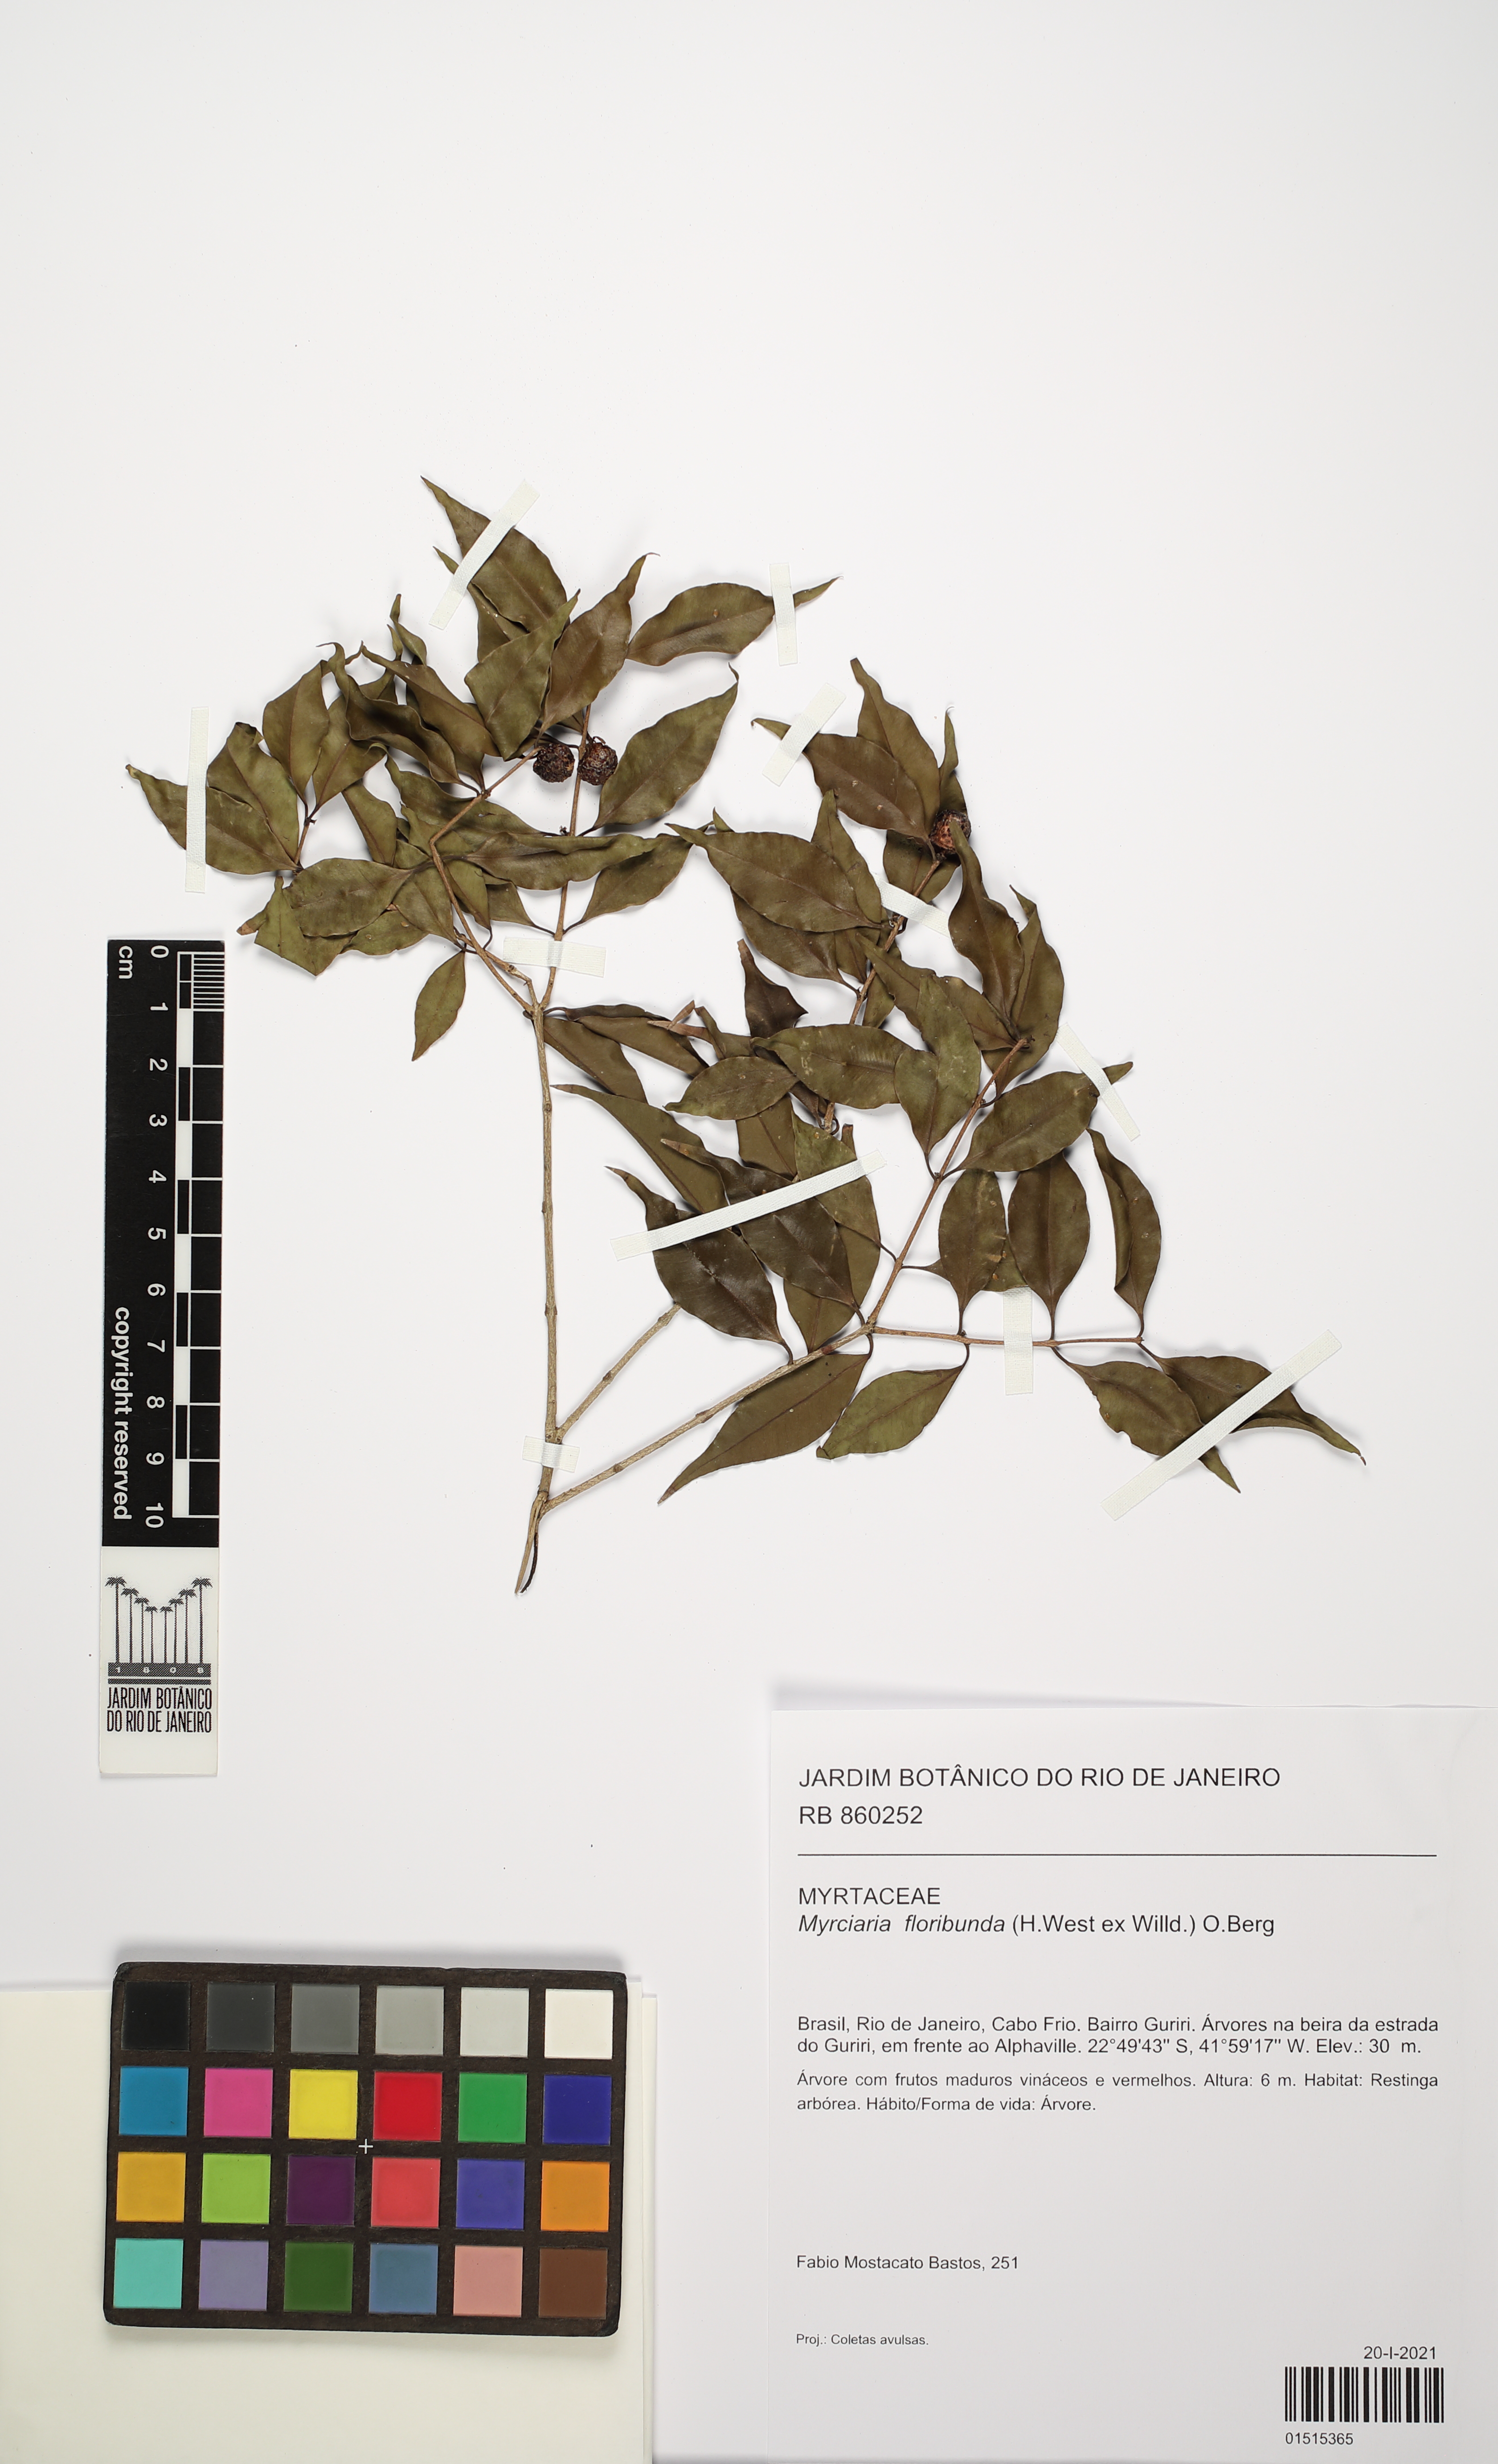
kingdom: Plantae
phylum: Tracheophyta
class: Magnoliopsida
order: Myrtales
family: Myrtaceae
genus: Myrciaria
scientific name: Myrciaria floribunda
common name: Guavaberry
